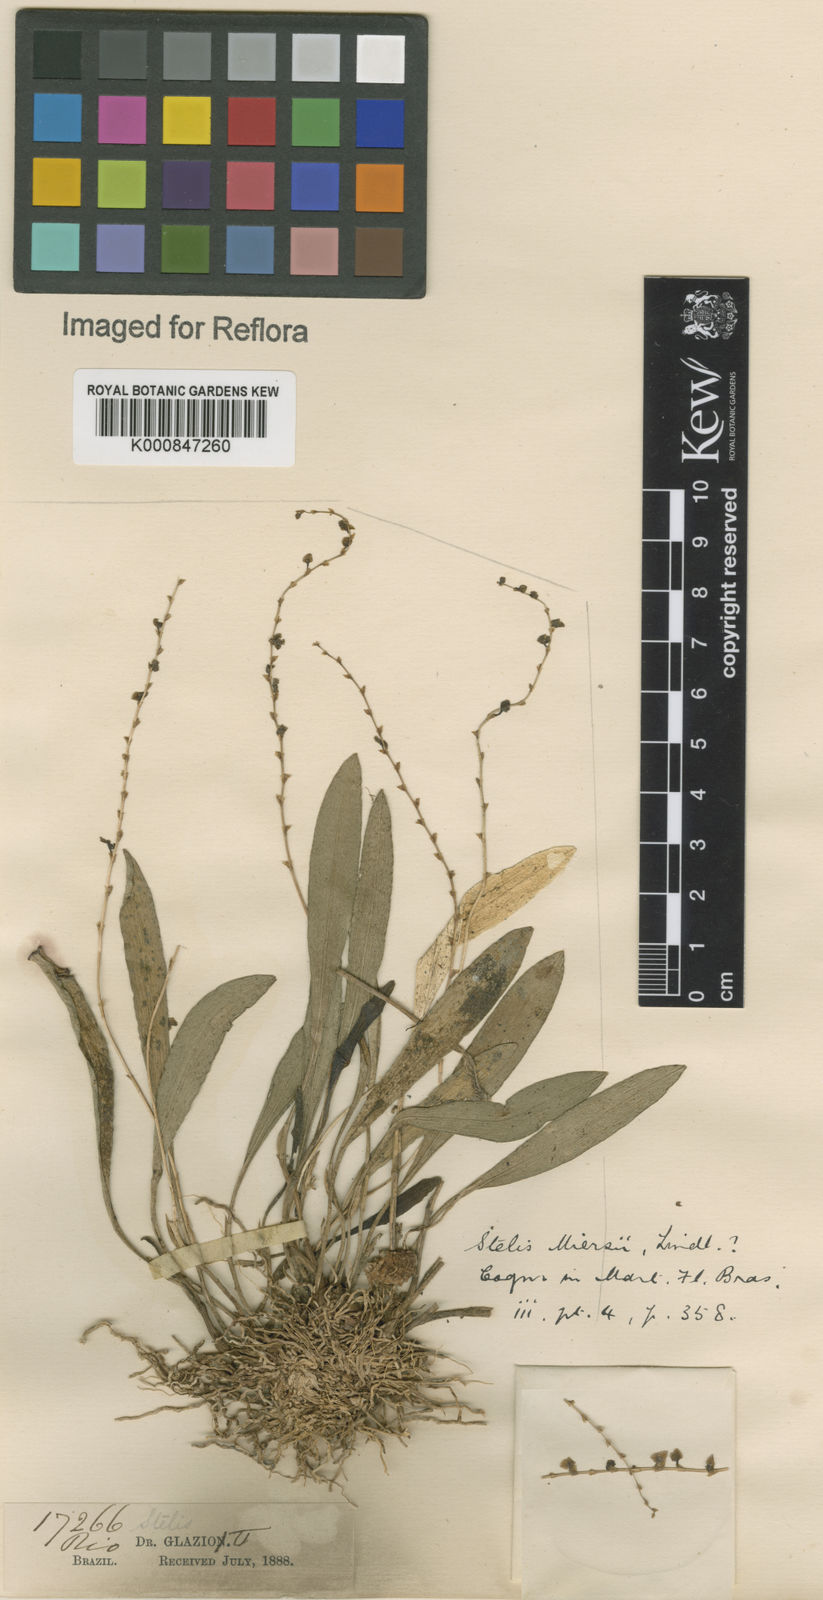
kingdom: Plantae
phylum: Tracheophyta
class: Liliopsida
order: Asparagales
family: Orchidaceae
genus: Stelis
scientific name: Stelis aprica
